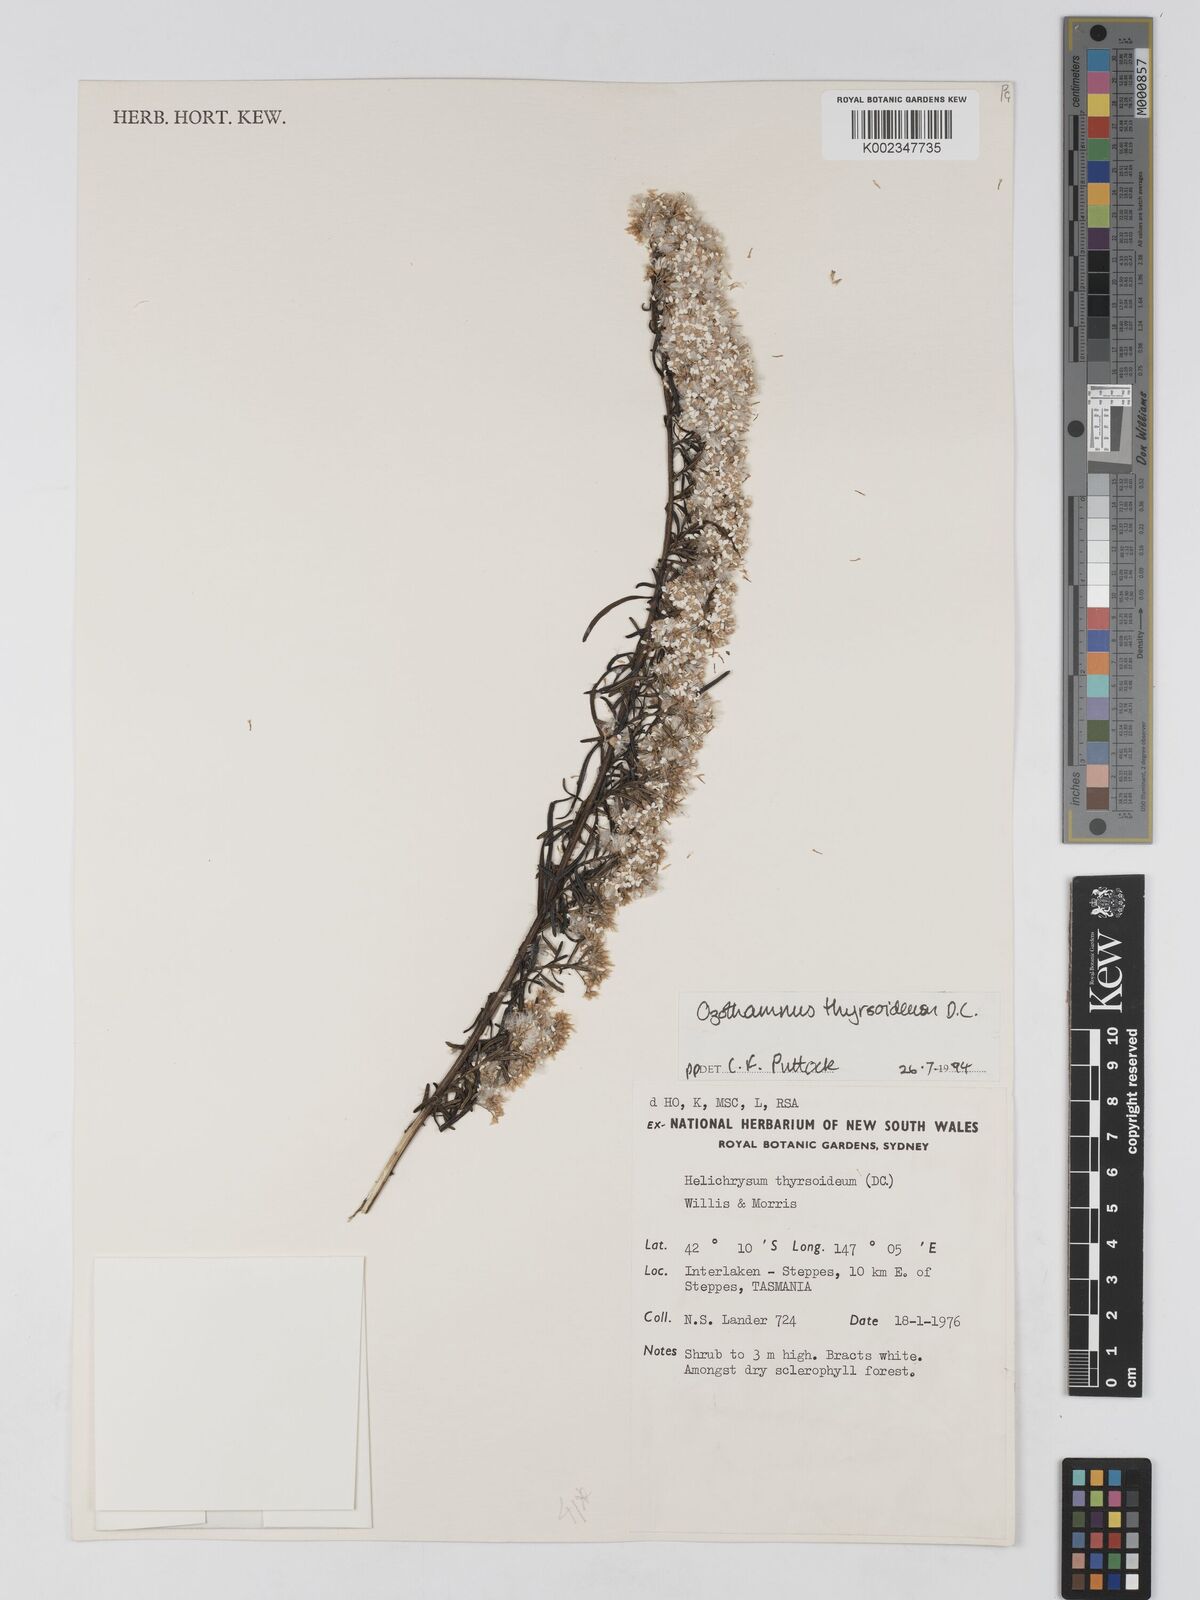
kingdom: Plantae
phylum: Tracheophyta
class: Magnoliopsida
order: Asterales
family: Asteraceae
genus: Ozothamnus
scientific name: Ozothamnus thyrsoideus
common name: Snow-in-summer
